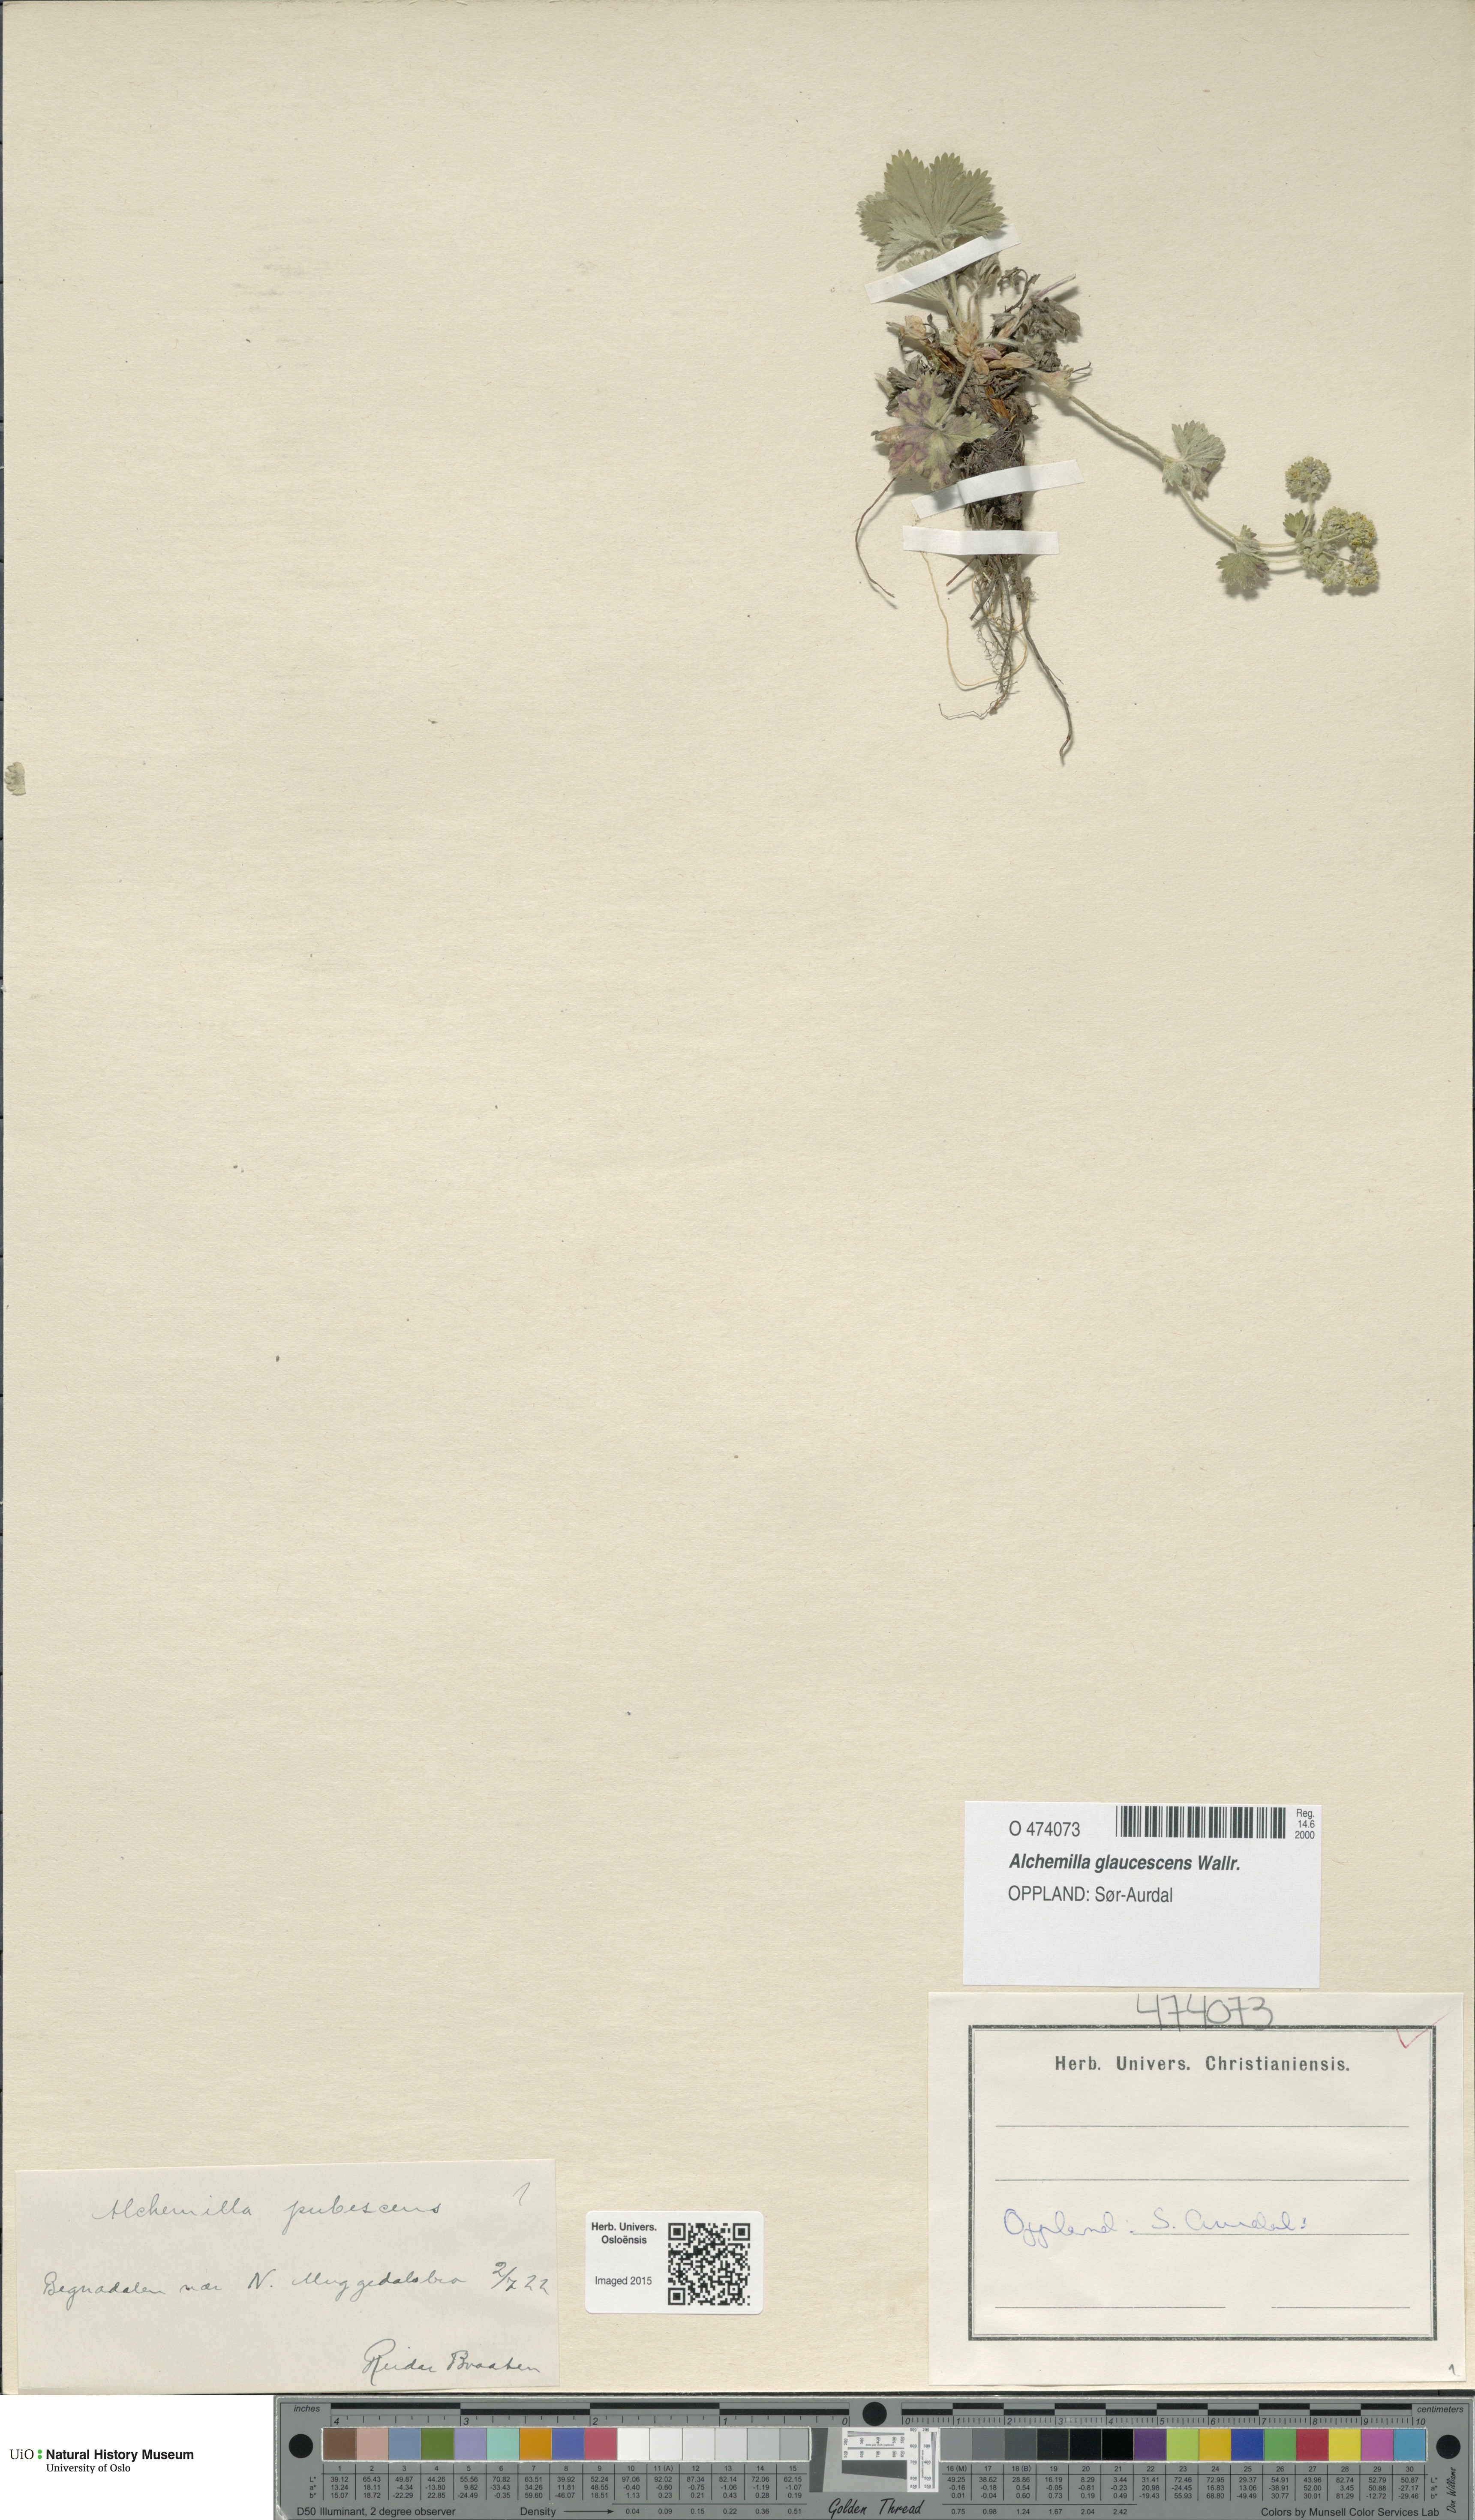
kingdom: Plantae
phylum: Tracheophyta
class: Magnoliopsida
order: Rosales
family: Rosaceae
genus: Alchemilla
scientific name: Alchemilla glaucescens
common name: Silky lady's mantle
